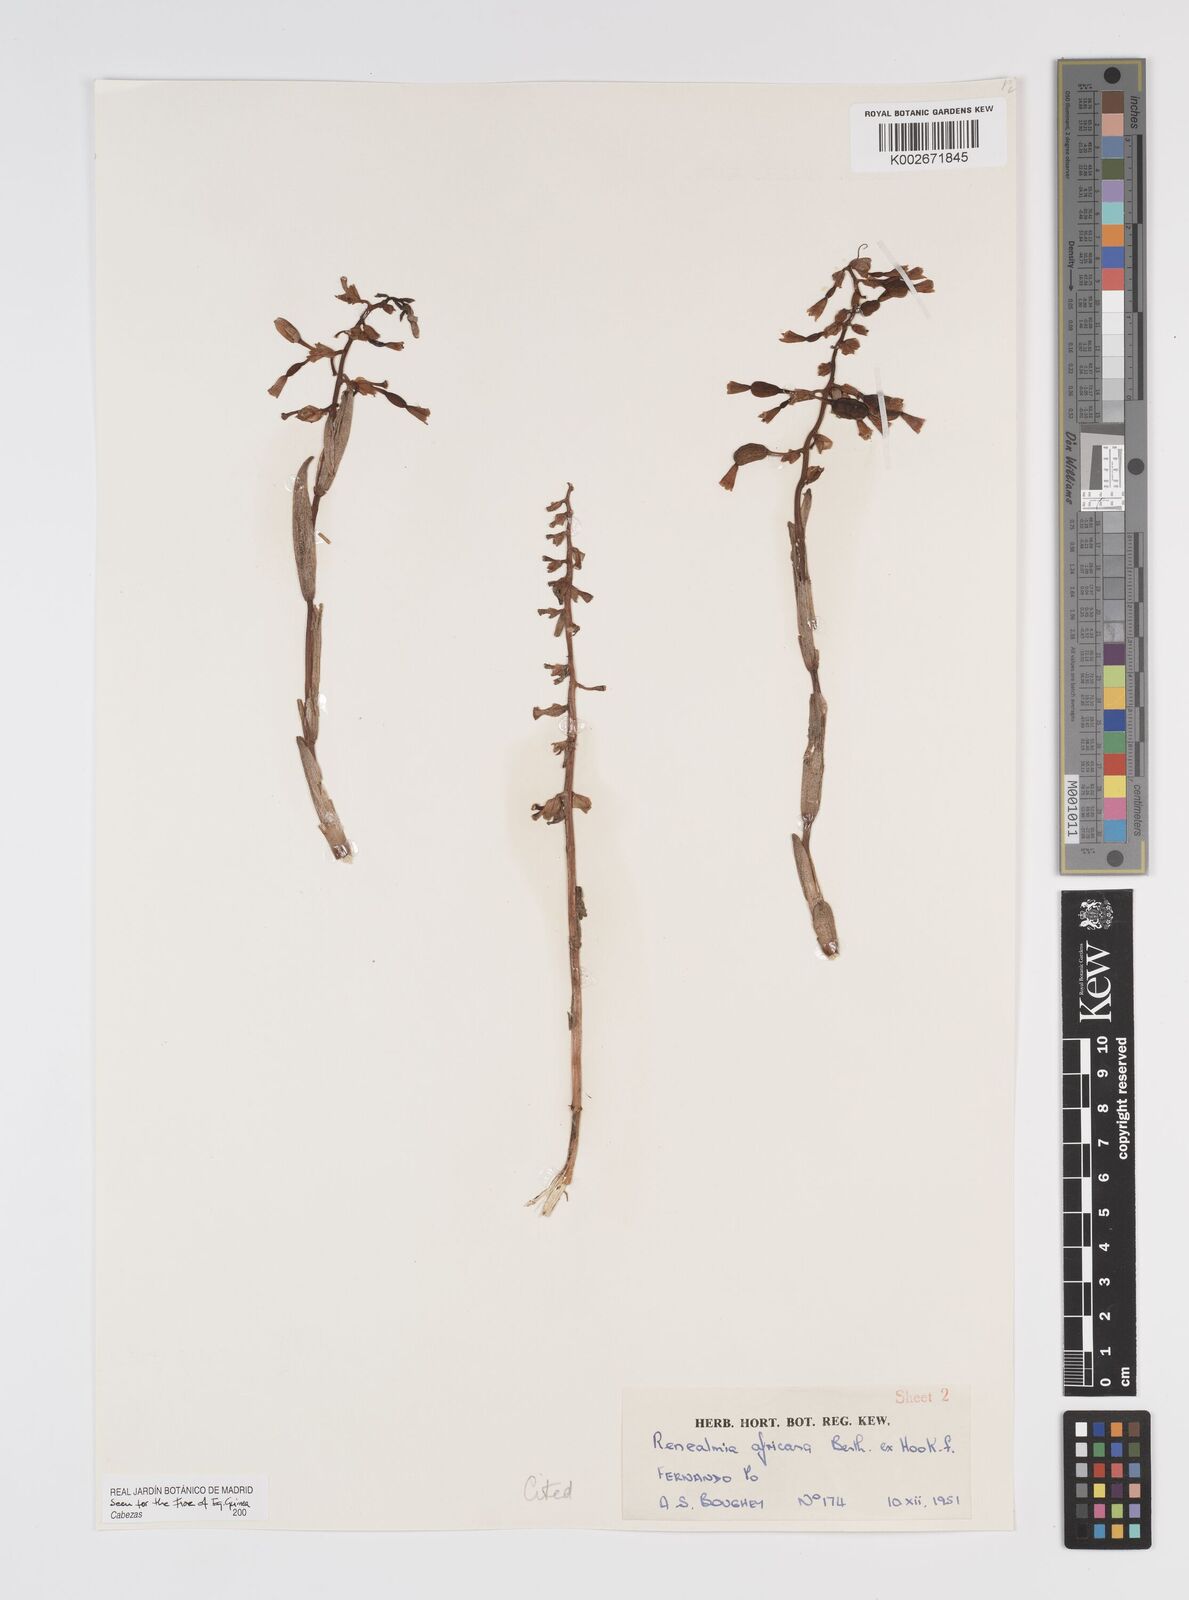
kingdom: Plantae
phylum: Tracheophyta
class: Liliopsida
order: Zingiberales
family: Zingiberaceae
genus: Renealmia
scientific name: Renealmia africana
